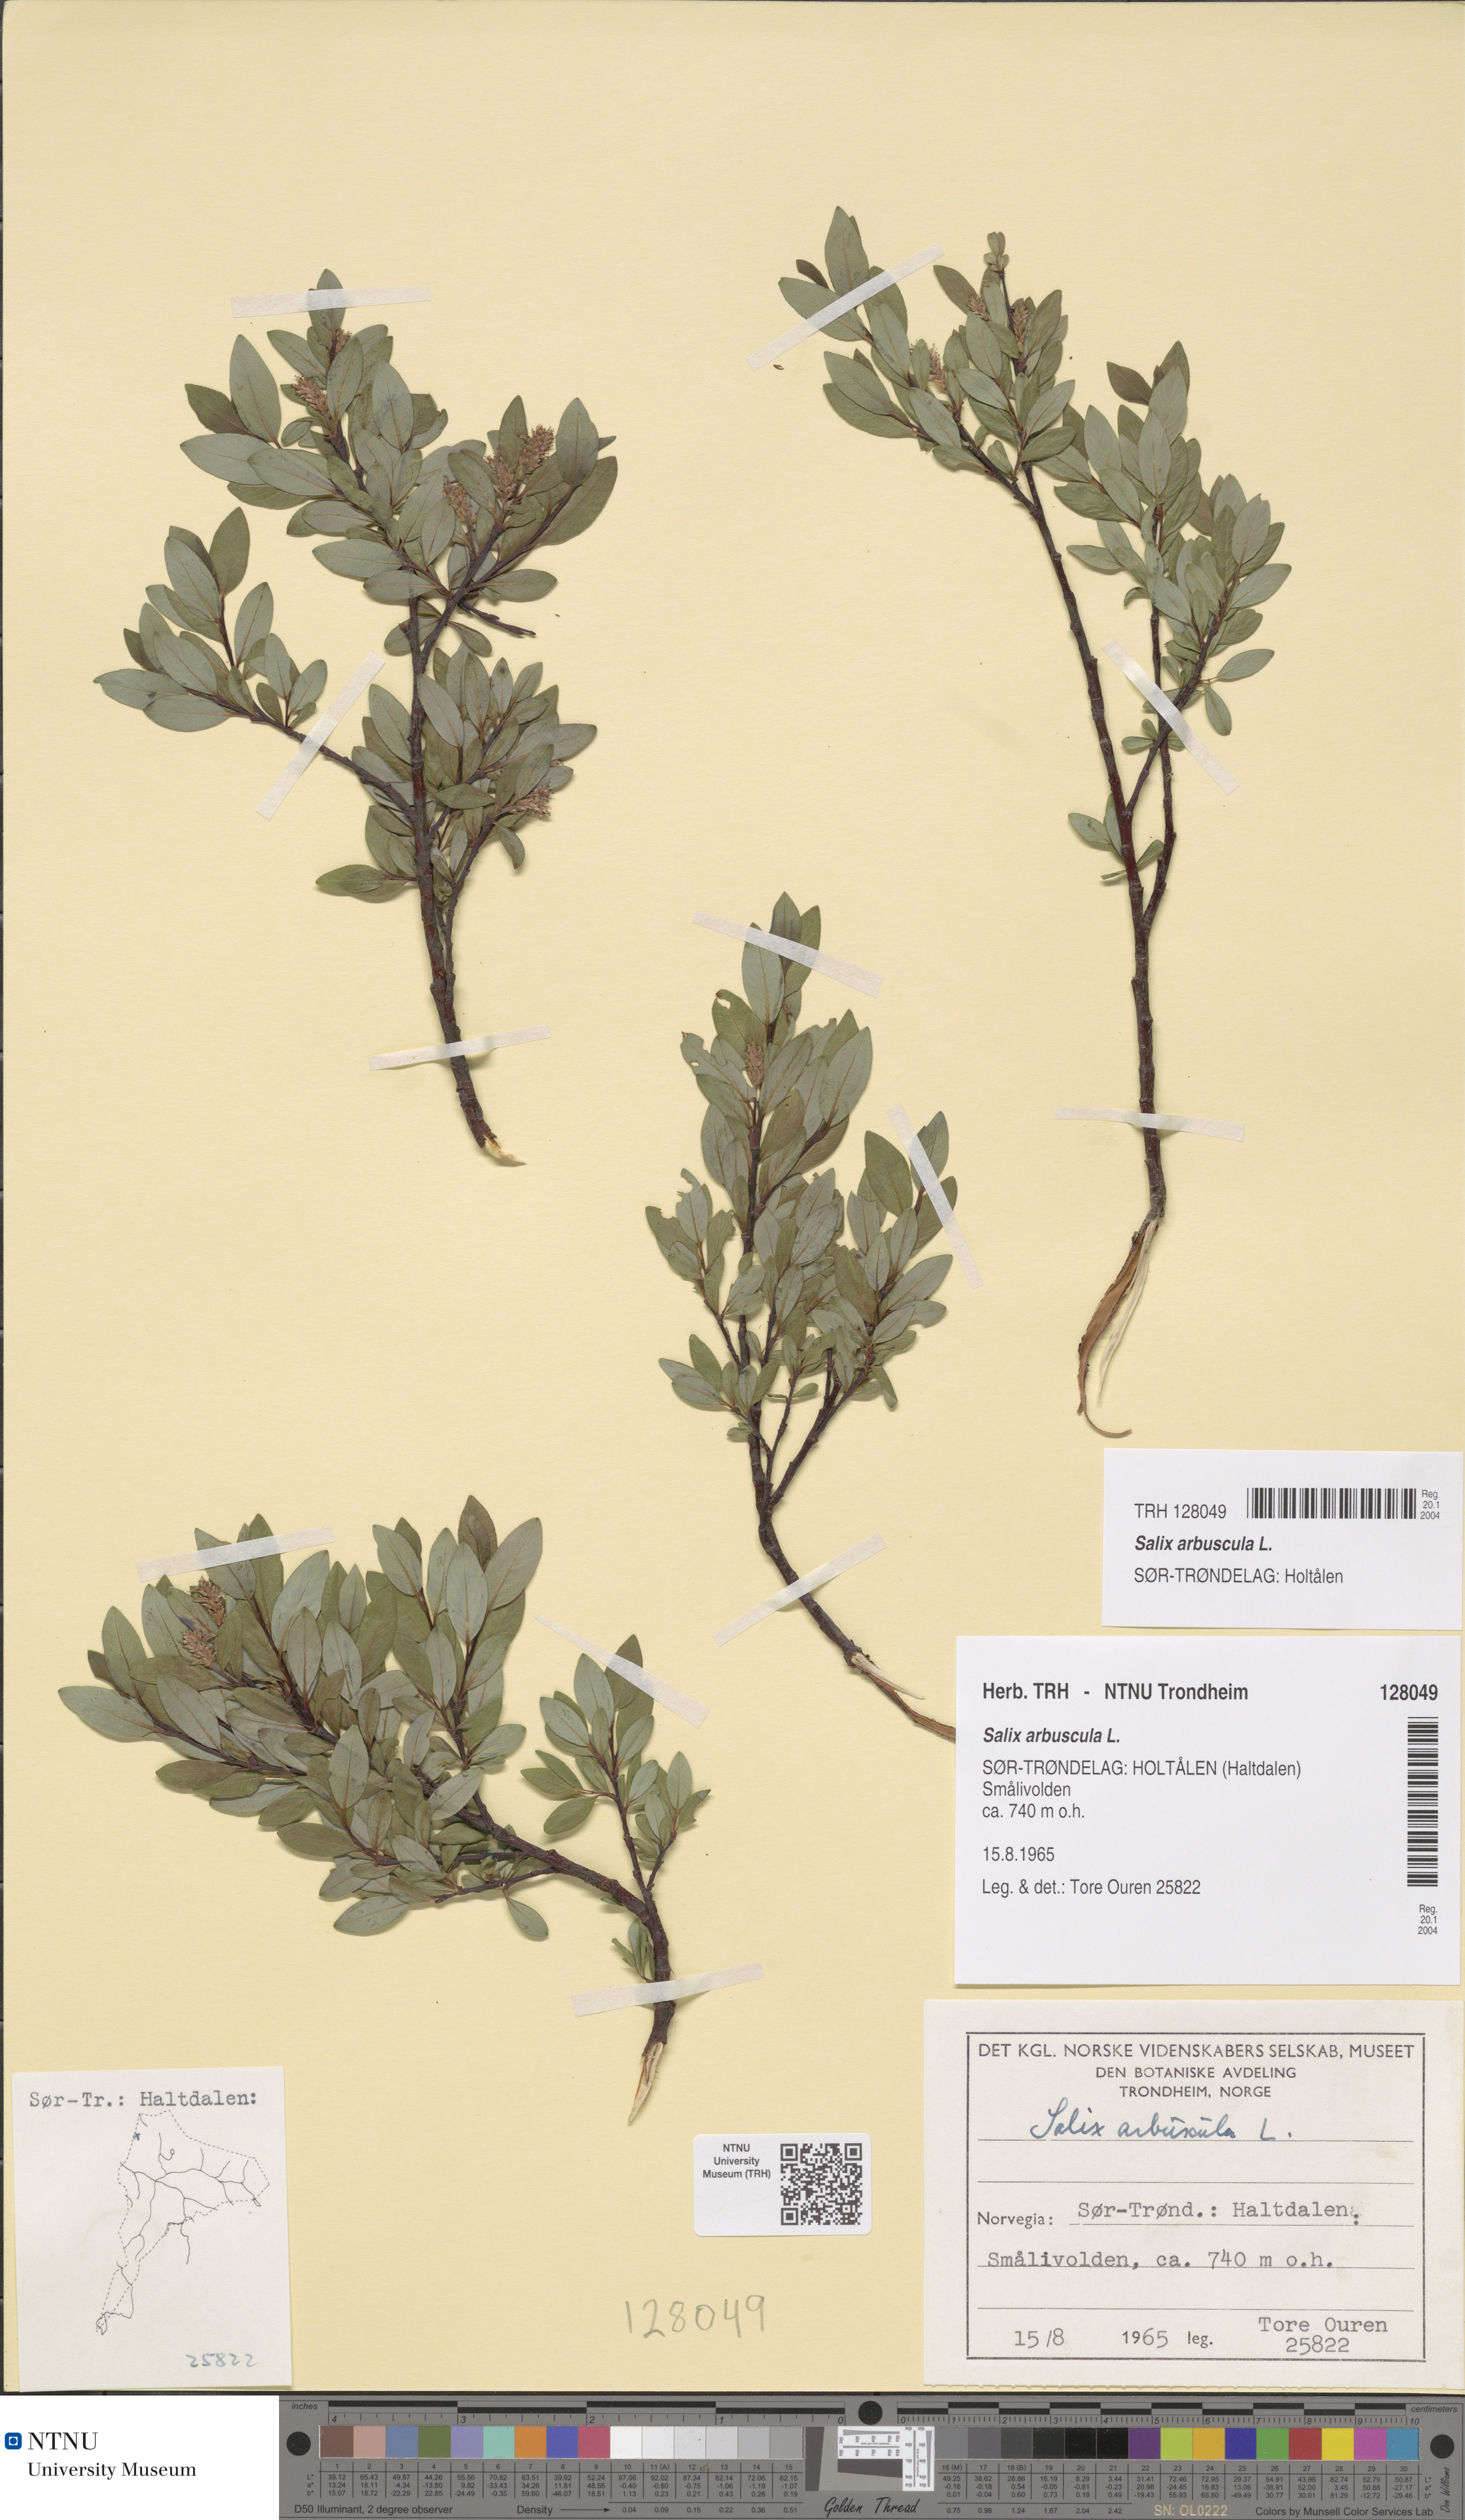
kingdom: Plantae
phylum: Tracheophyta
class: Magnoliopsida
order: Malpighiales
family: Salicaceae
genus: Salix
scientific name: Salix arbuscula
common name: Mountain willow
